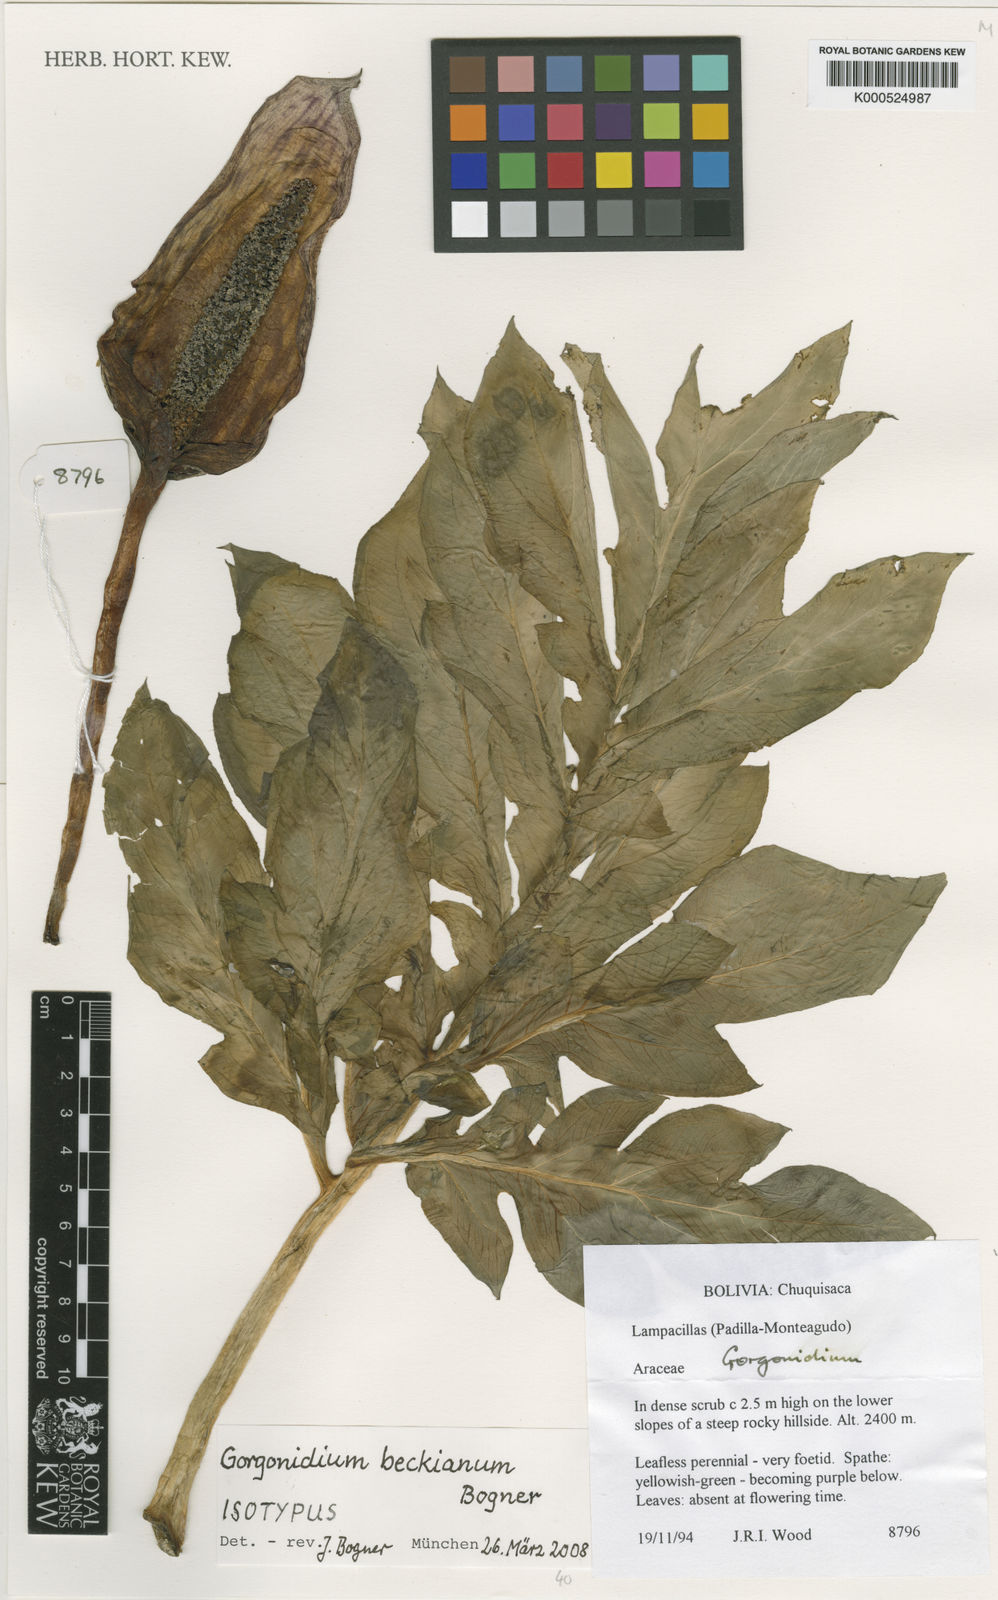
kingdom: Plantae
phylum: Tracheophyta
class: Liliopsida
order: Alismatales
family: Araceae
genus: Gorgonidium
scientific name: Gorgonidium
